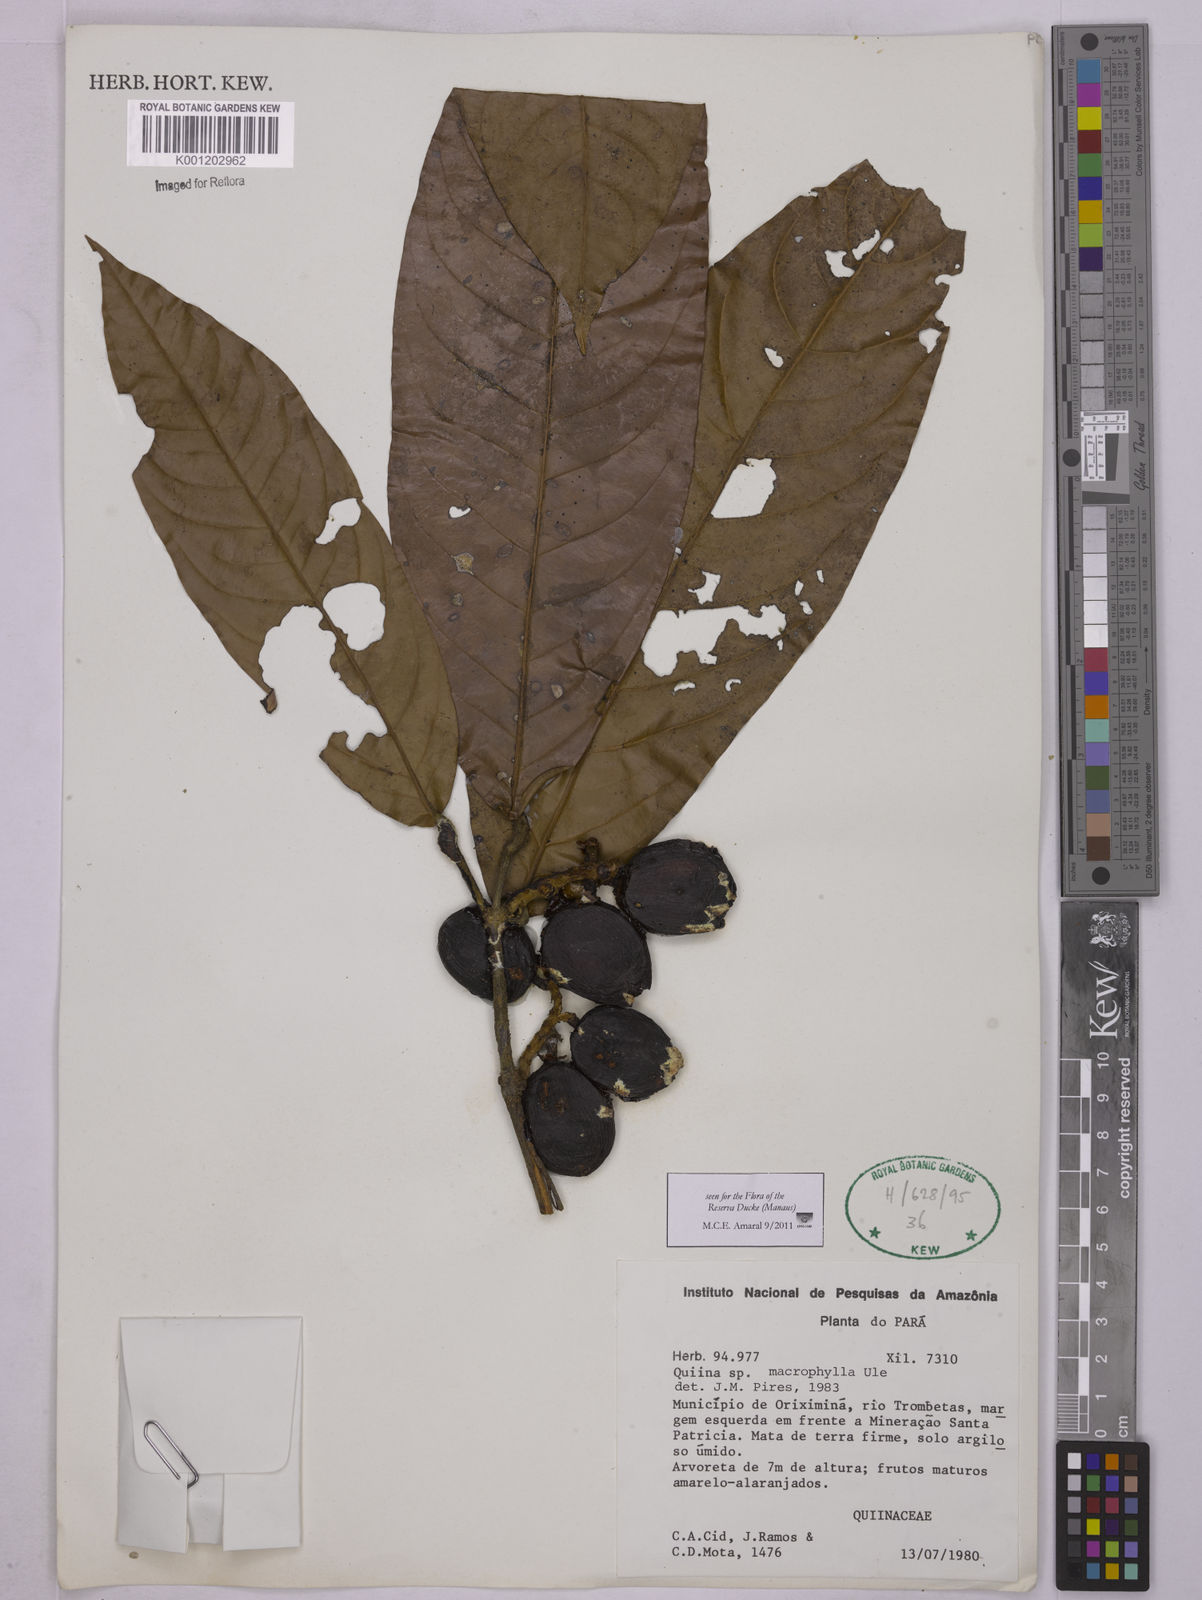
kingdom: Plantae
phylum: Tracheophyta
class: Magnoliopsida
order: Malpighiales
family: Quiinaceae
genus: Quiina
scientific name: Quiina macrophylla
